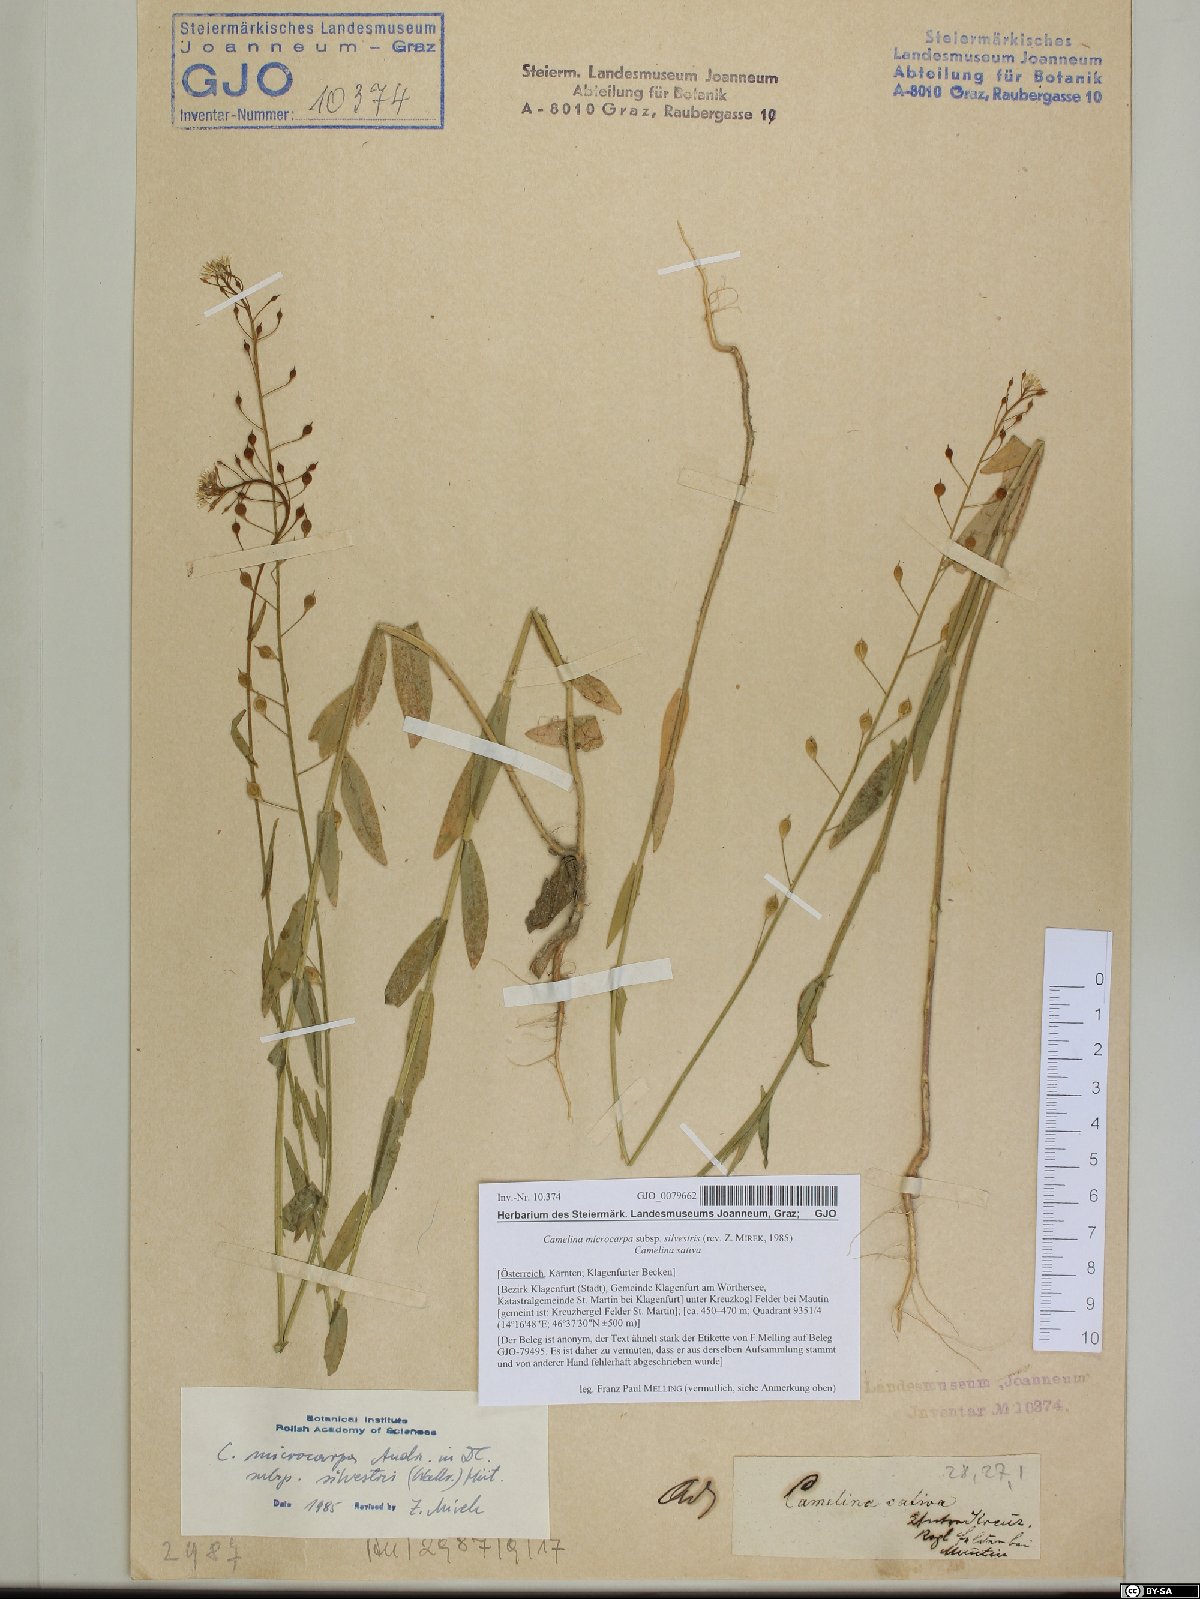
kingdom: Plantae
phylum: Tracheophyta
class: Magnoliopsida
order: Brassicales
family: Brassicaceae
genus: Camelina
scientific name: Camelina microcarpa
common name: Lesser gold-of-pleasure
